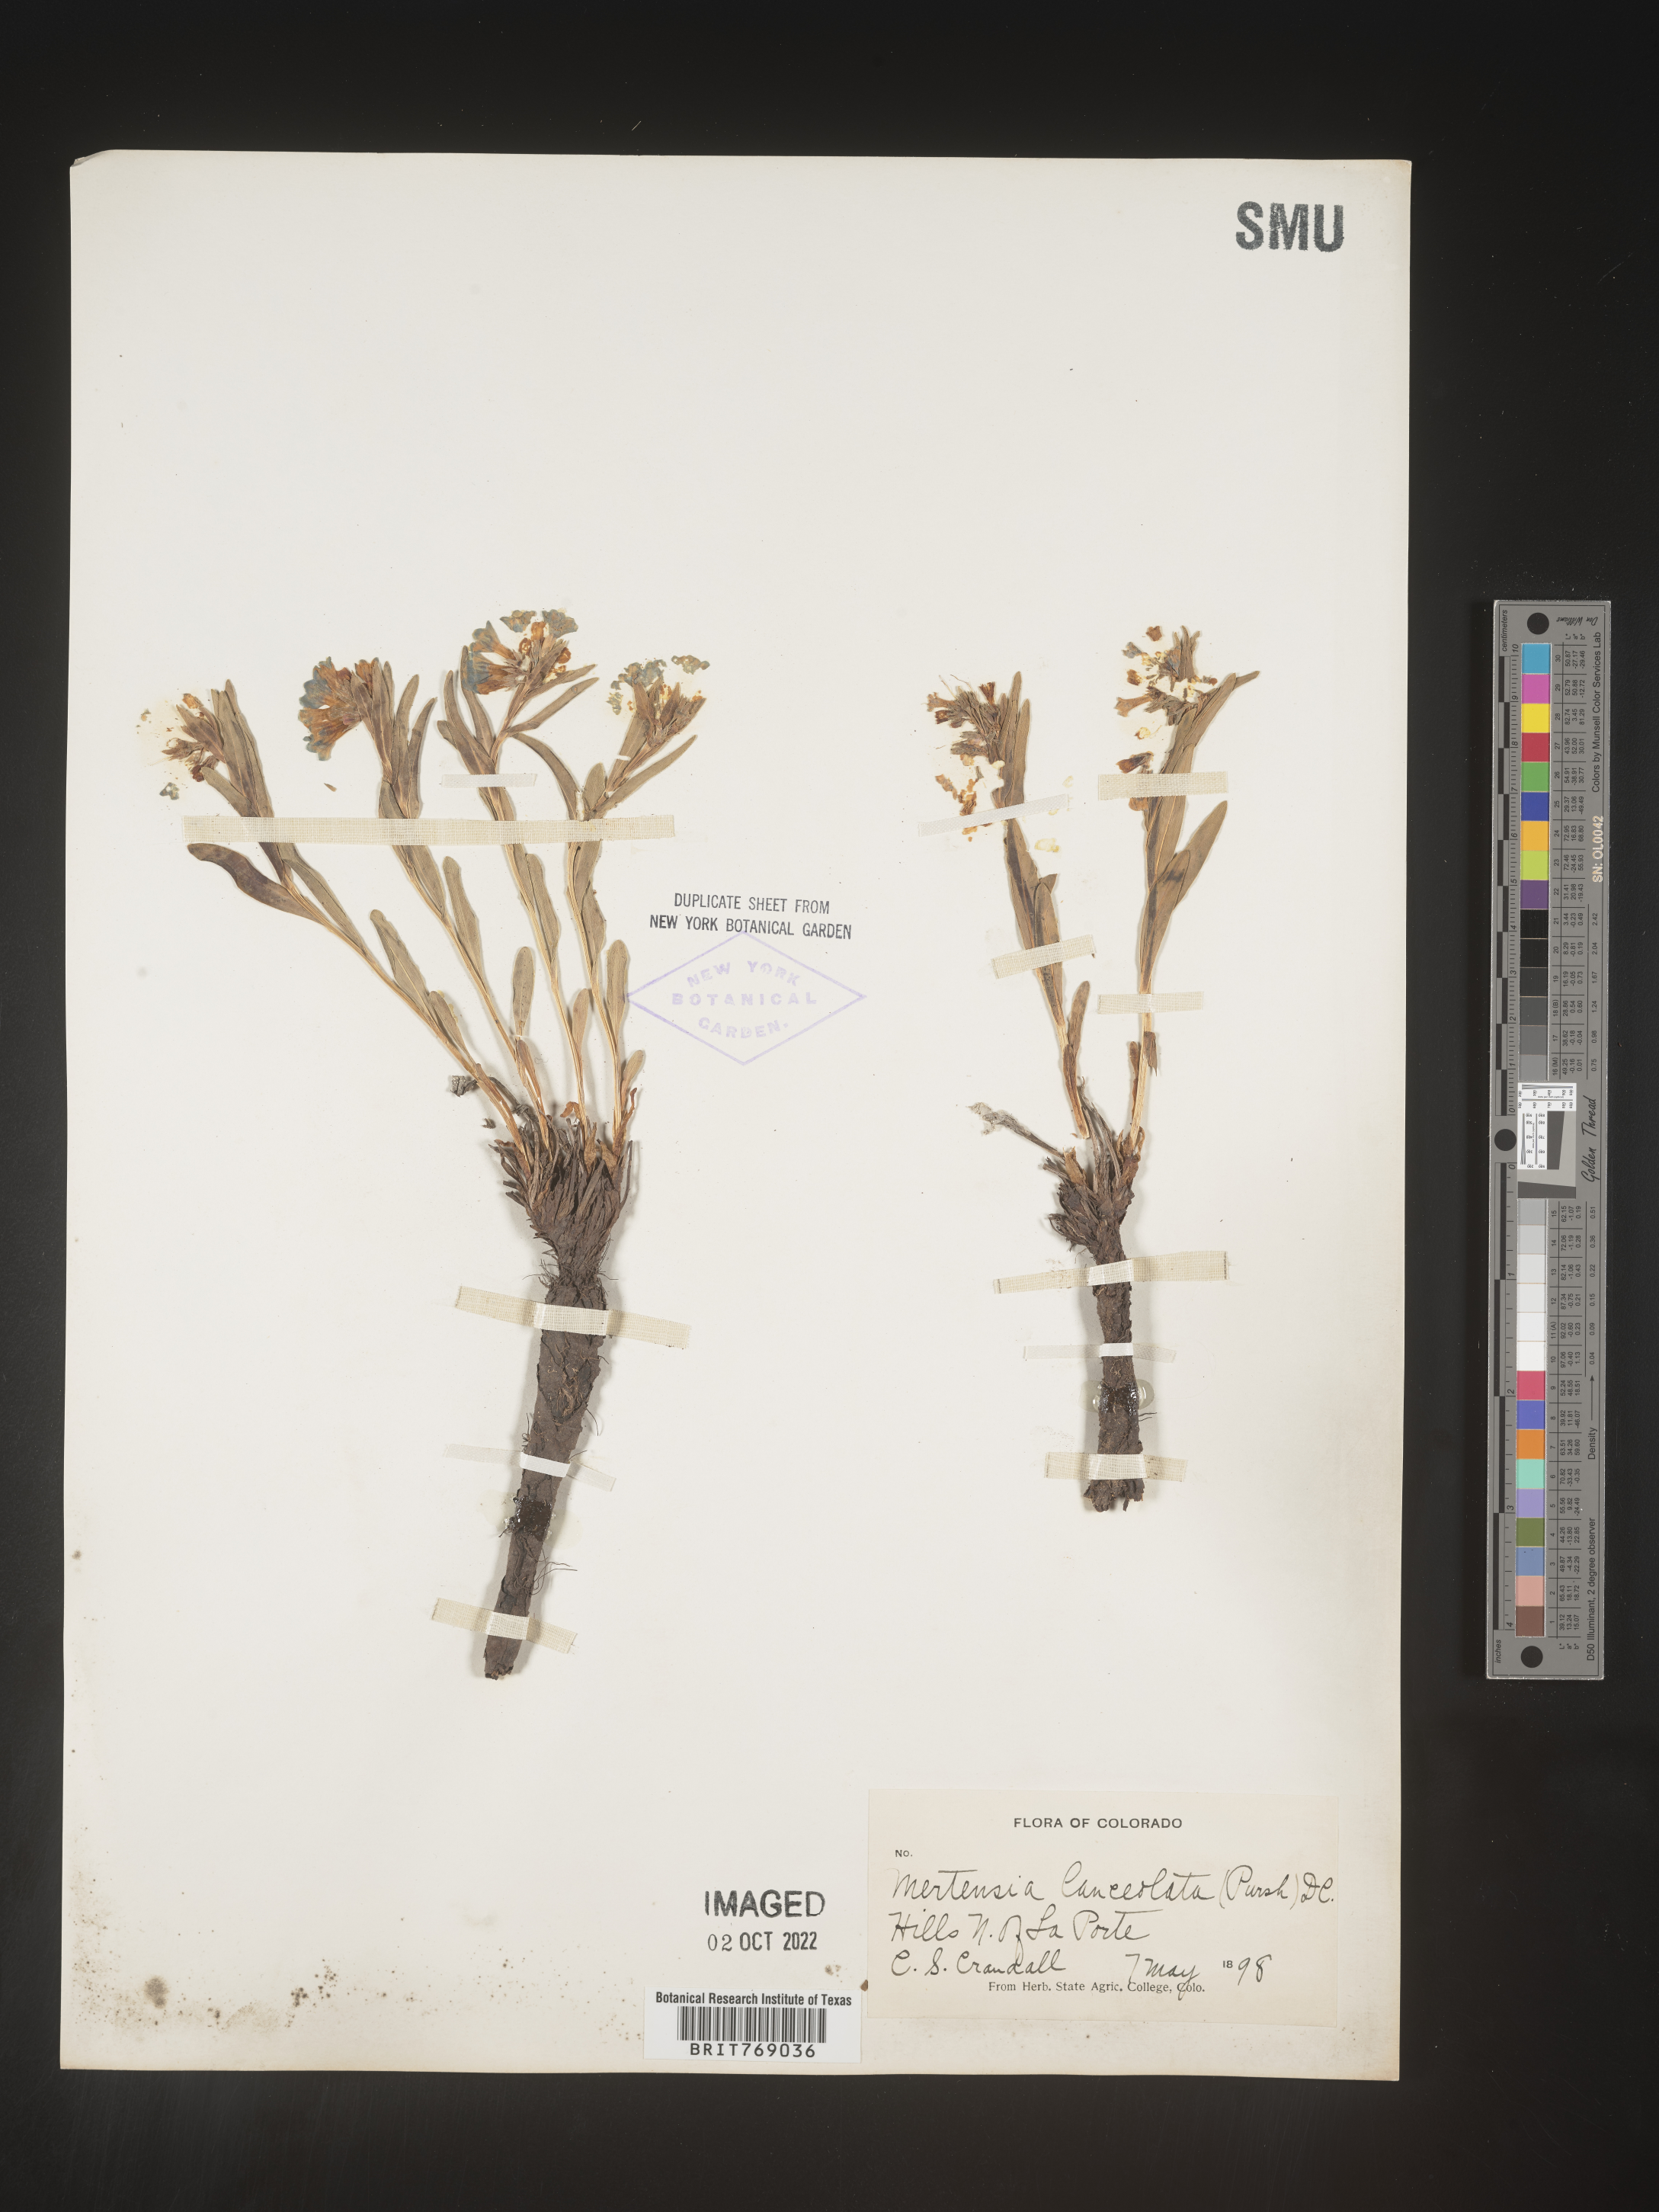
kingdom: Plantae
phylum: Tracheophyta
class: Magnoliopsida
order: Boraginales
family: Boraginaceae
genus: Mertensia
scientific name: Mertensia
